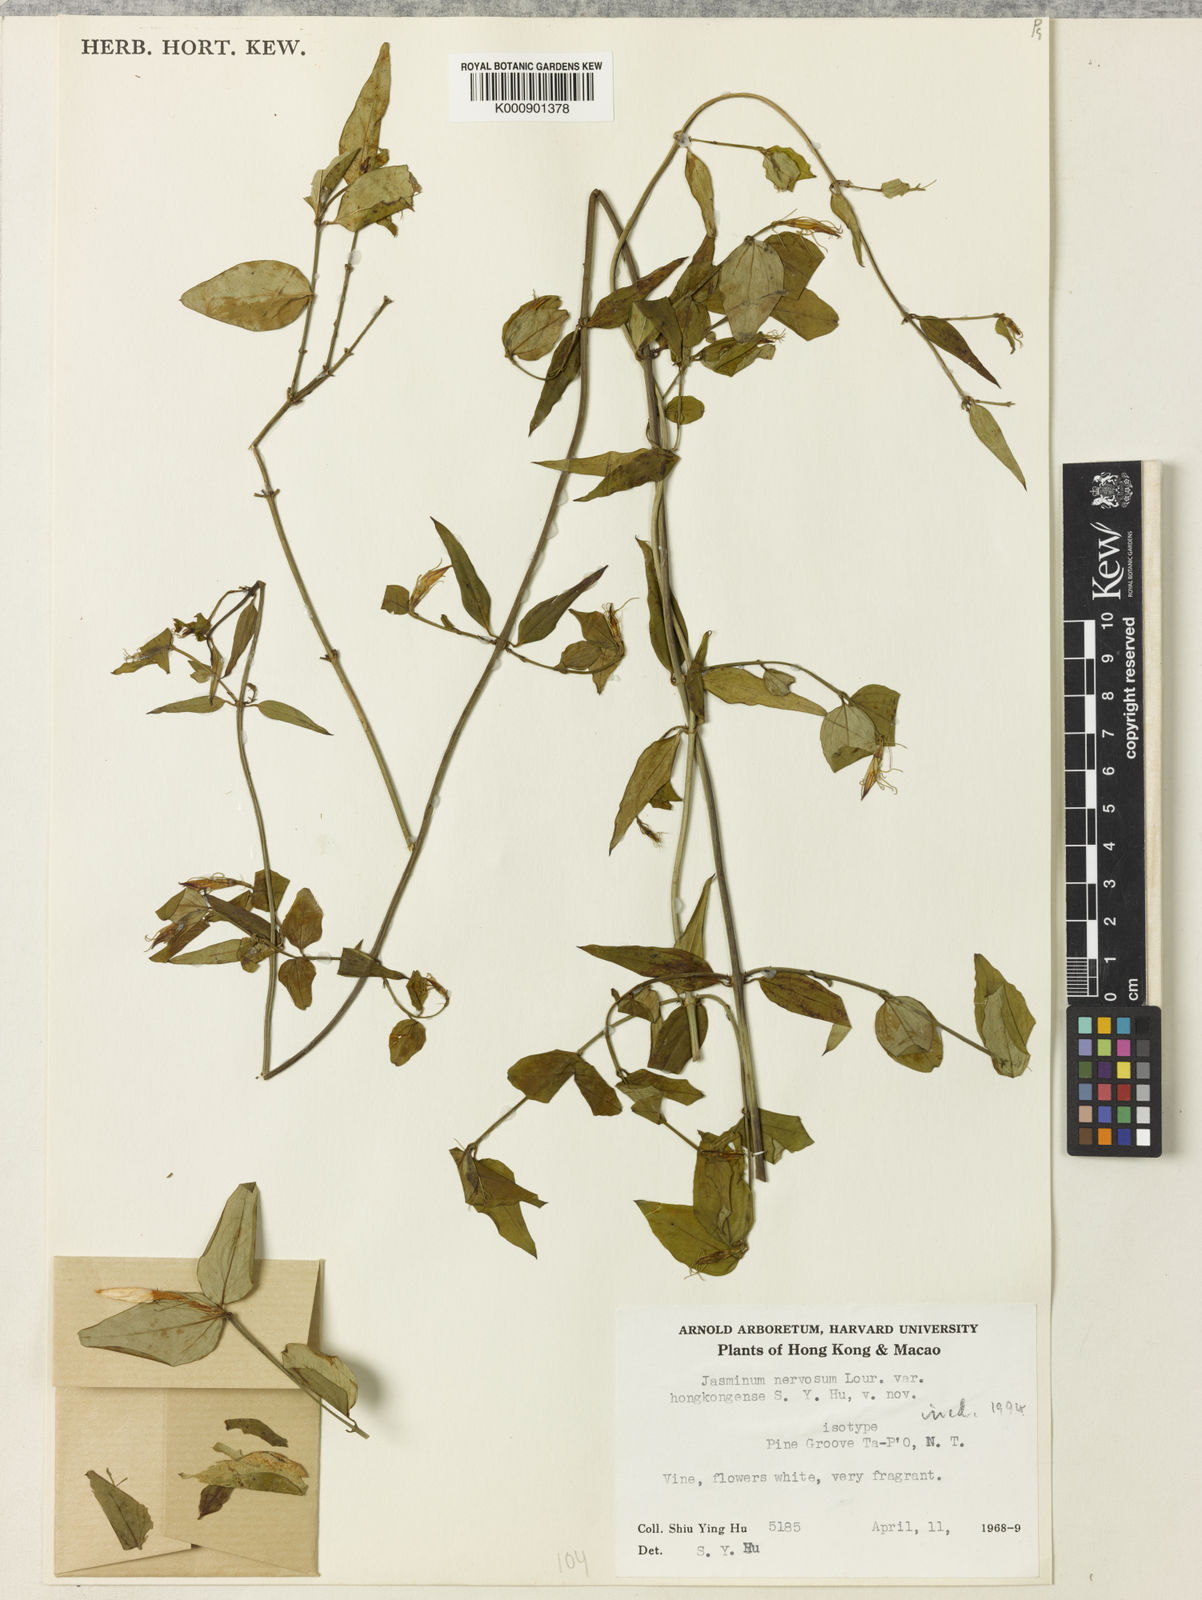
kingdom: Plantae
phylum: Tracheophyta
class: Magnoliopsida
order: Lamiales
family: Oleaceae
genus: Jasminum
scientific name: Jasminum nervosum
